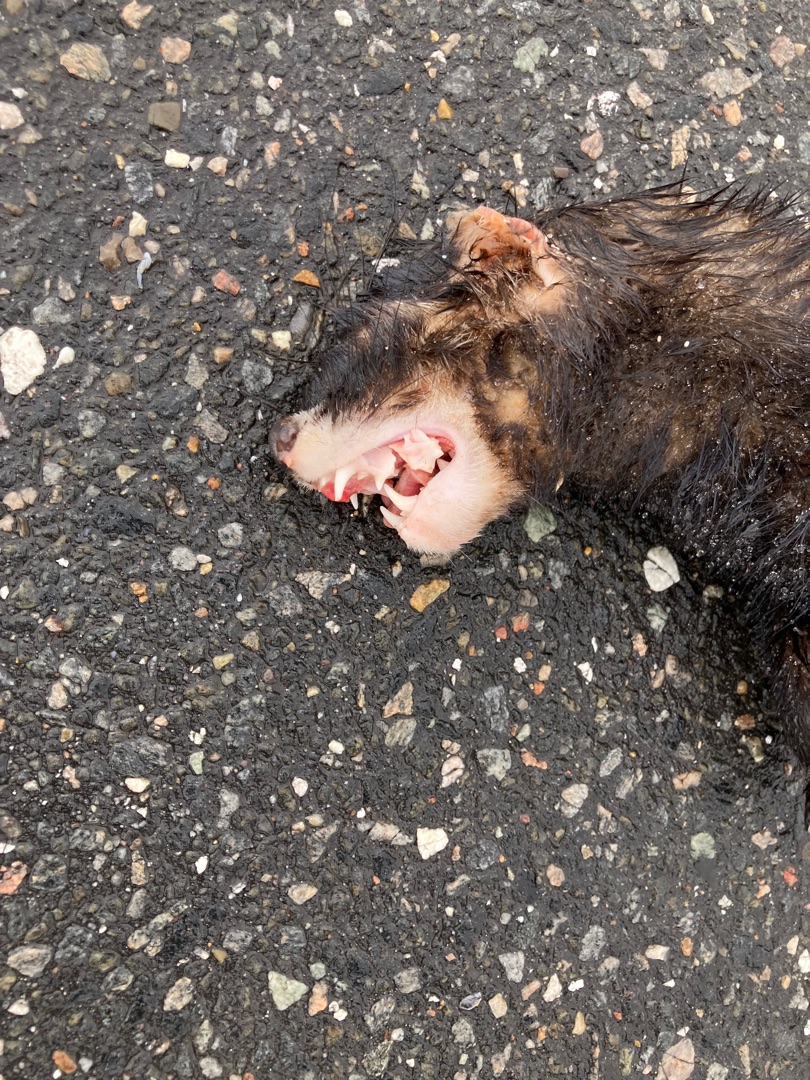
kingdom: Animalia
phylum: Chordata
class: Mammalia
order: Carnivora
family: Mustelidae
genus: Mustela
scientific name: Mustela putorius
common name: Ilder
